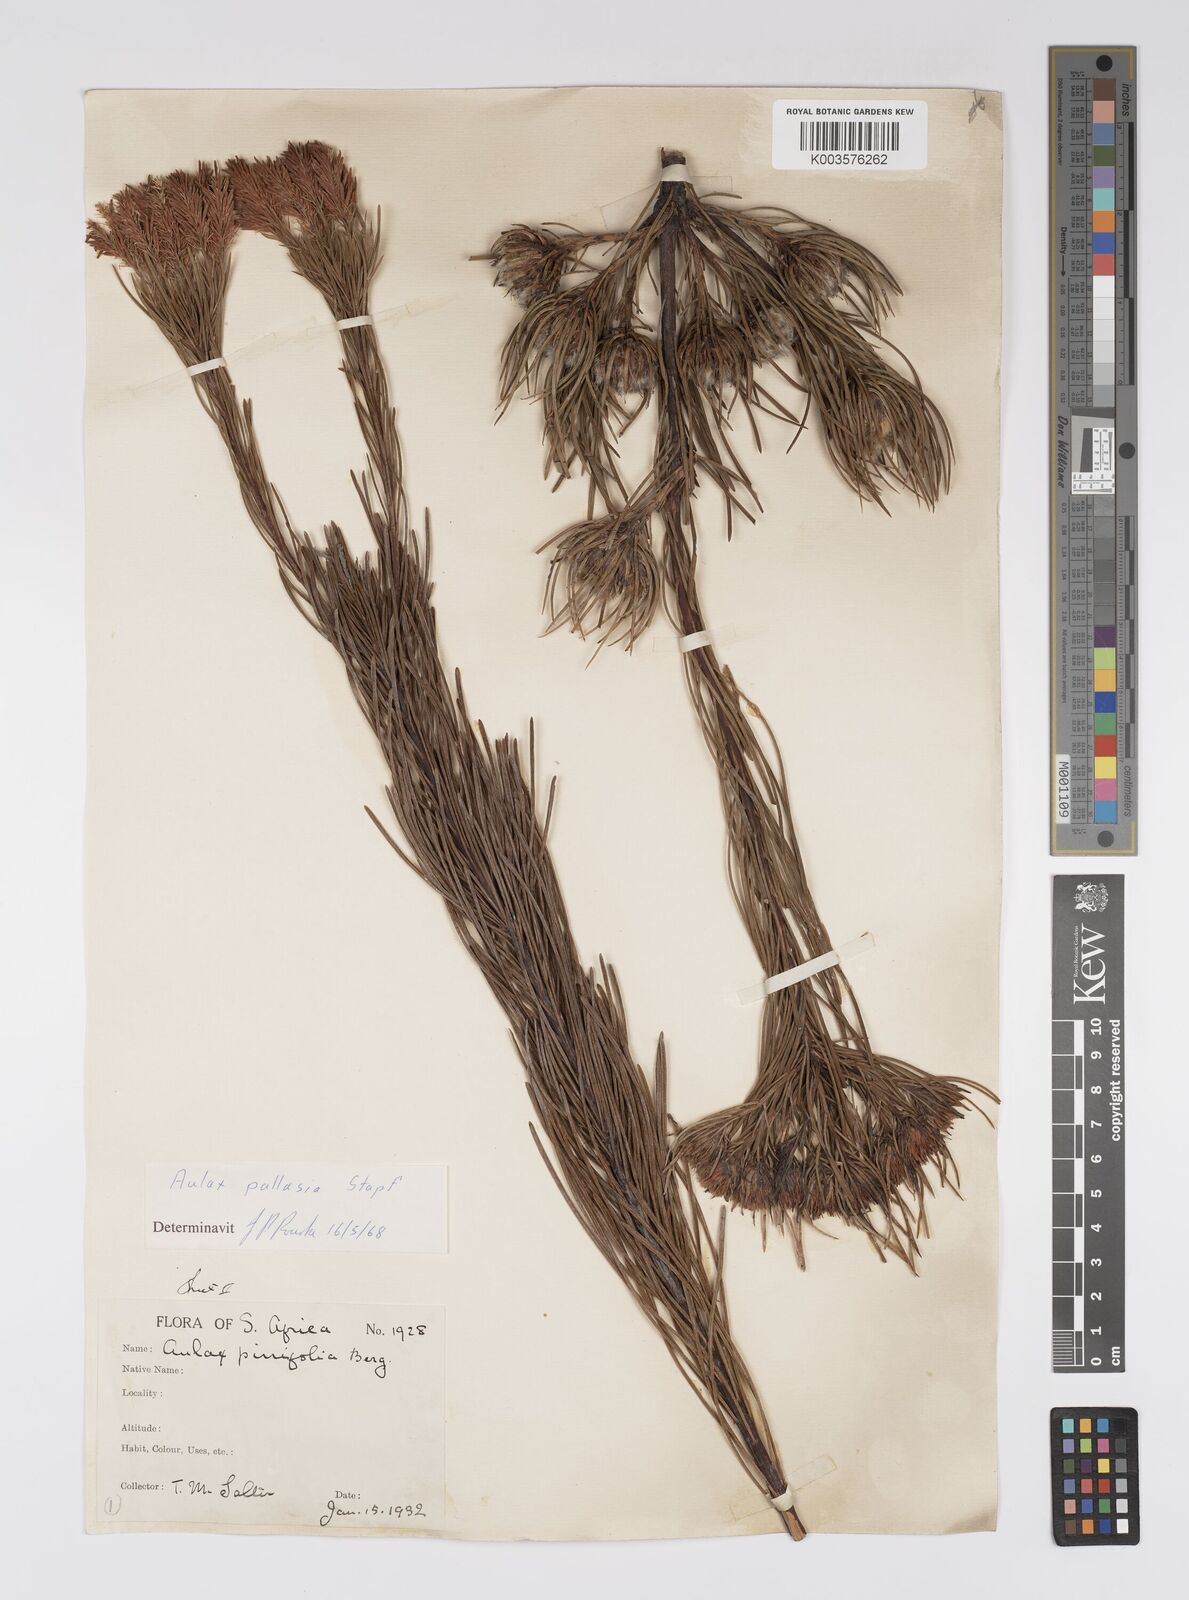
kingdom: Plantae
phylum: Tracheophyta
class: Magnoliopsida
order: Proteales
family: Proteaceae
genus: Aulax
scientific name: Aulax pallasia
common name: Needle-leaf featherbush
